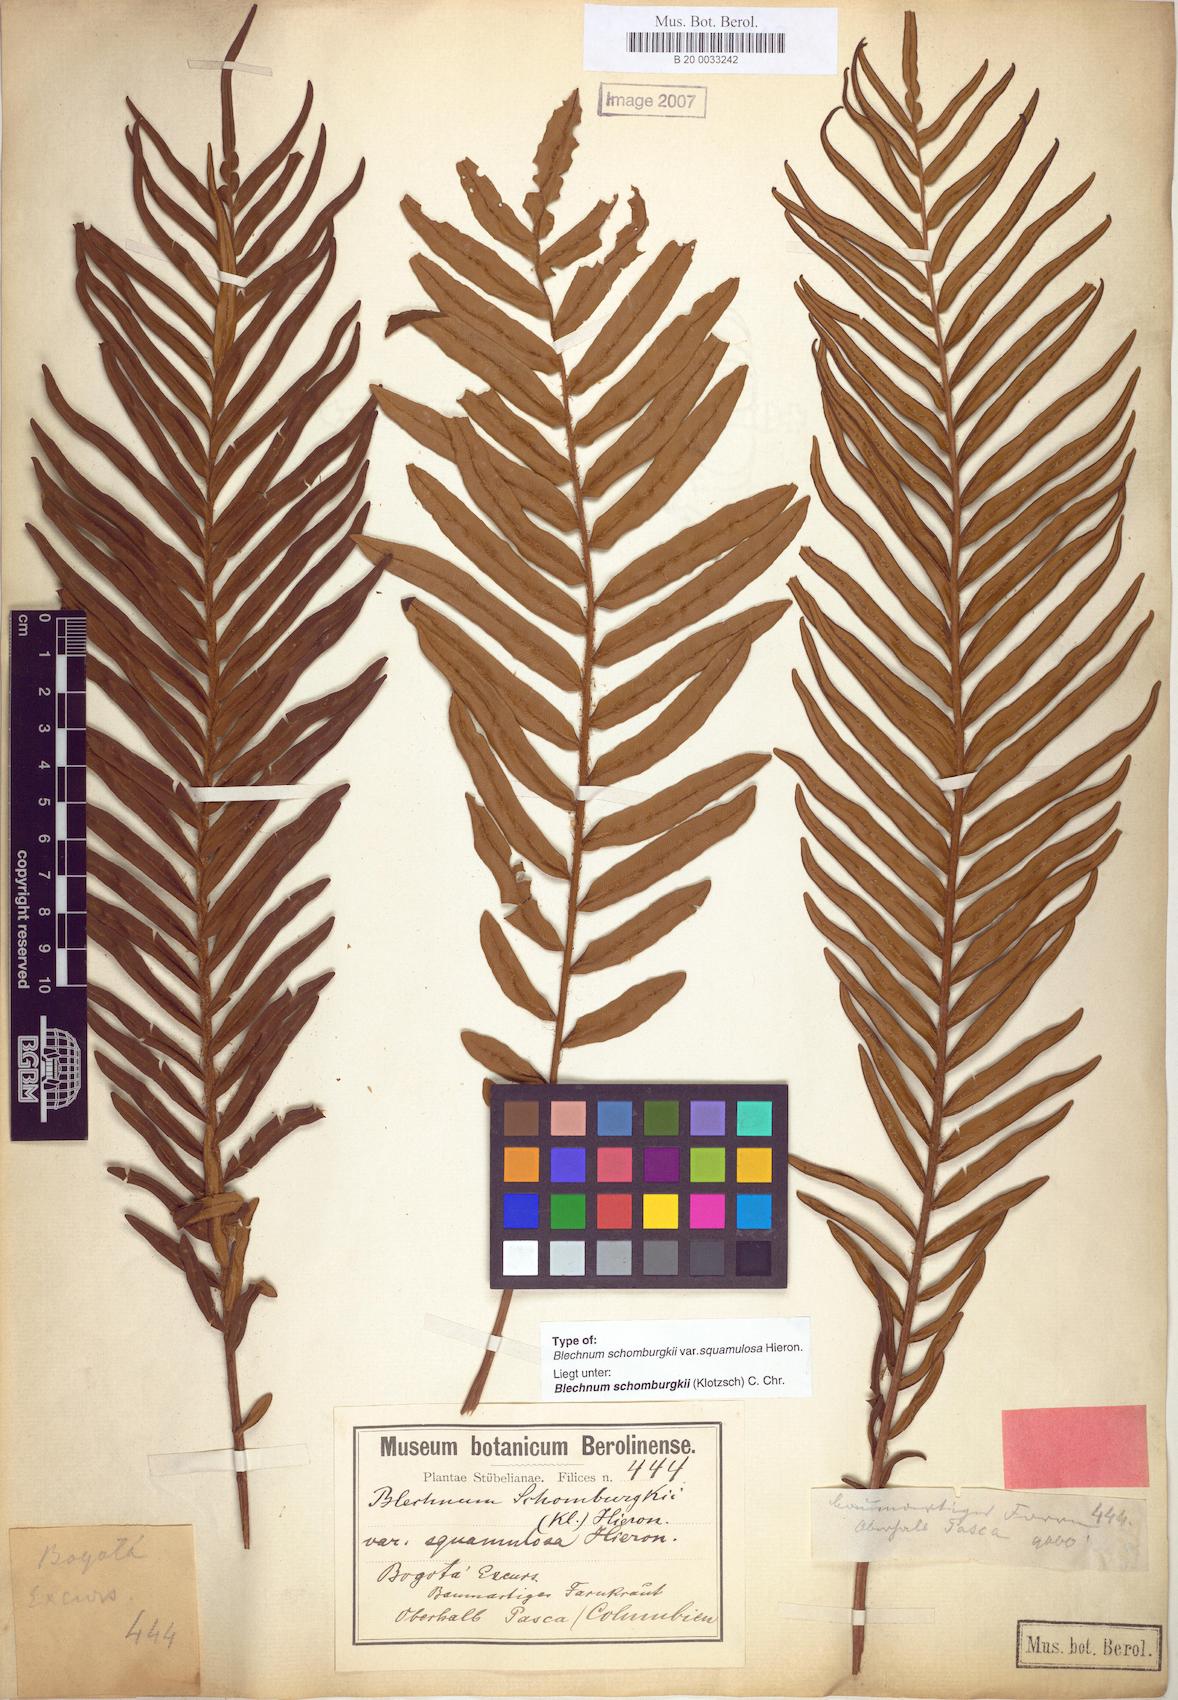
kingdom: Plantae
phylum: Tracheophyta
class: Polypodiopsida
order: Polypodiales
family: Blechnaceae
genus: Lomariocycas
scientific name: Lomariocycas schomburgkii
